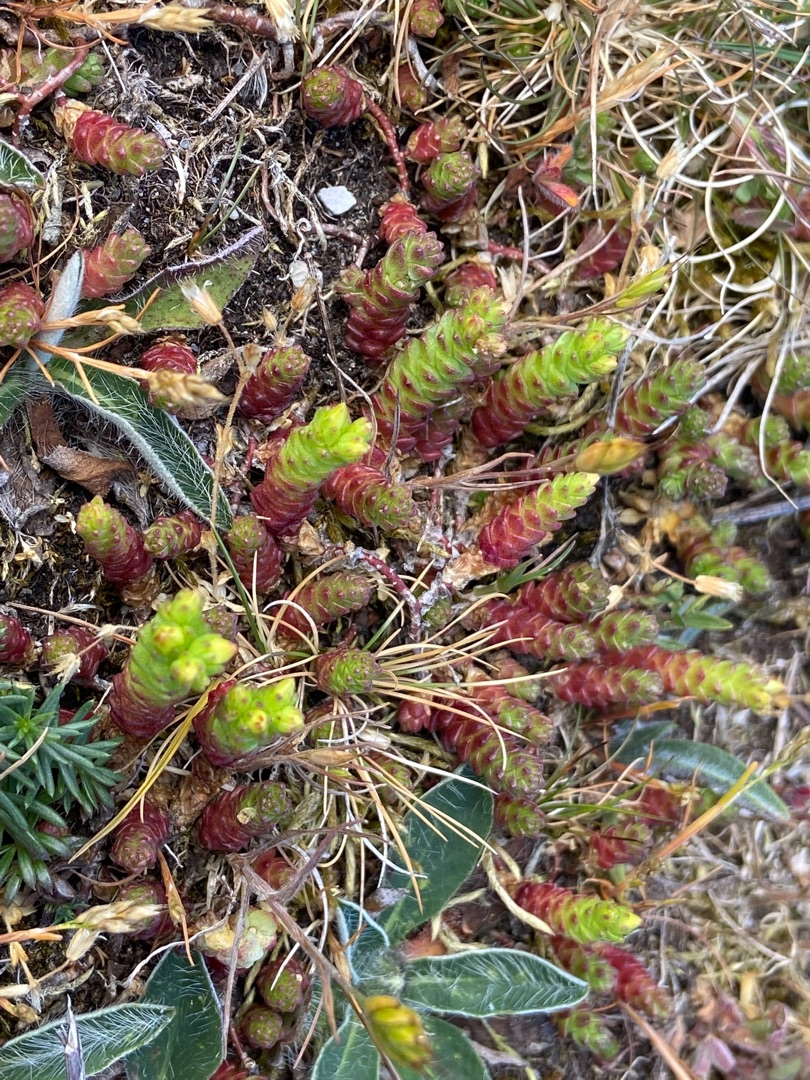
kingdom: Plantae
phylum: Tracheophyta
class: Magnoliopsida
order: Saxifragales
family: Crassulaceae
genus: Sedum
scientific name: Sedum acre
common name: Bidende stenurt
